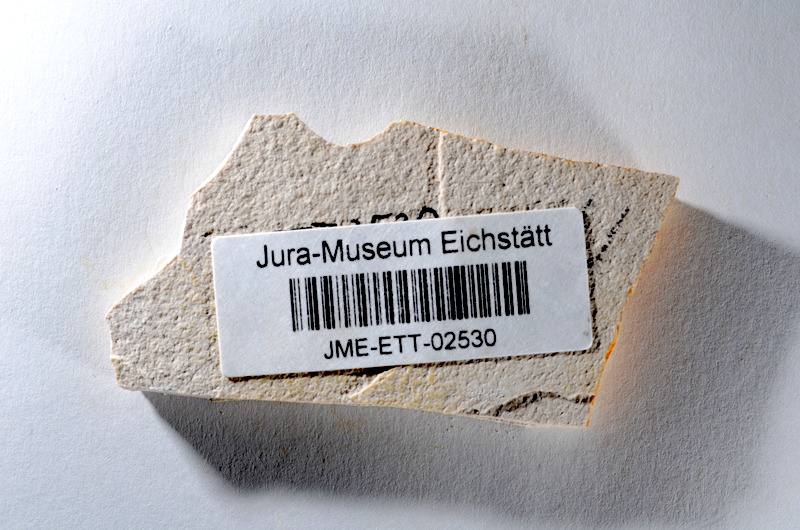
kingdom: Animalia
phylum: Chordata
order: Salmoniformes
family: Orthogonikleithridae
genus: Orthogonikleithrus
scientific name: Orthogonikleithrus hoelli
